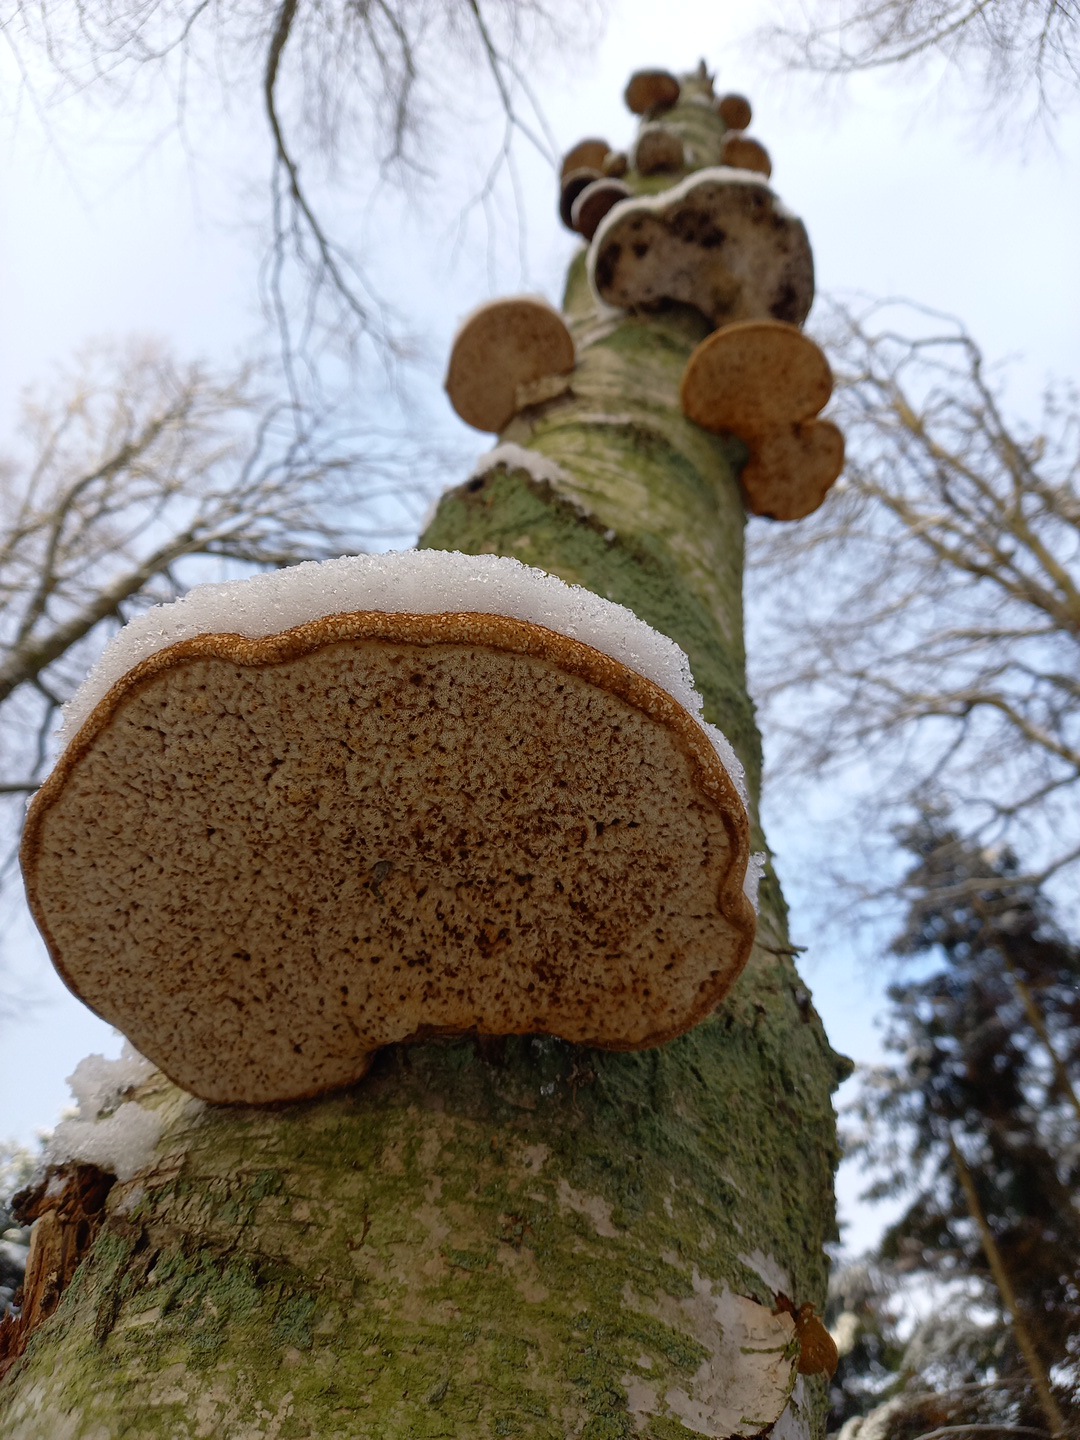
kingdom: Fungi
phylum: Basidiomycota
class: Agaricomycetes
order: Polyporales
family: Fomitopsidaceae
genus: Fomitopsis
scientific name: Fomitopsis betulina
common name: birkeporesvamp
